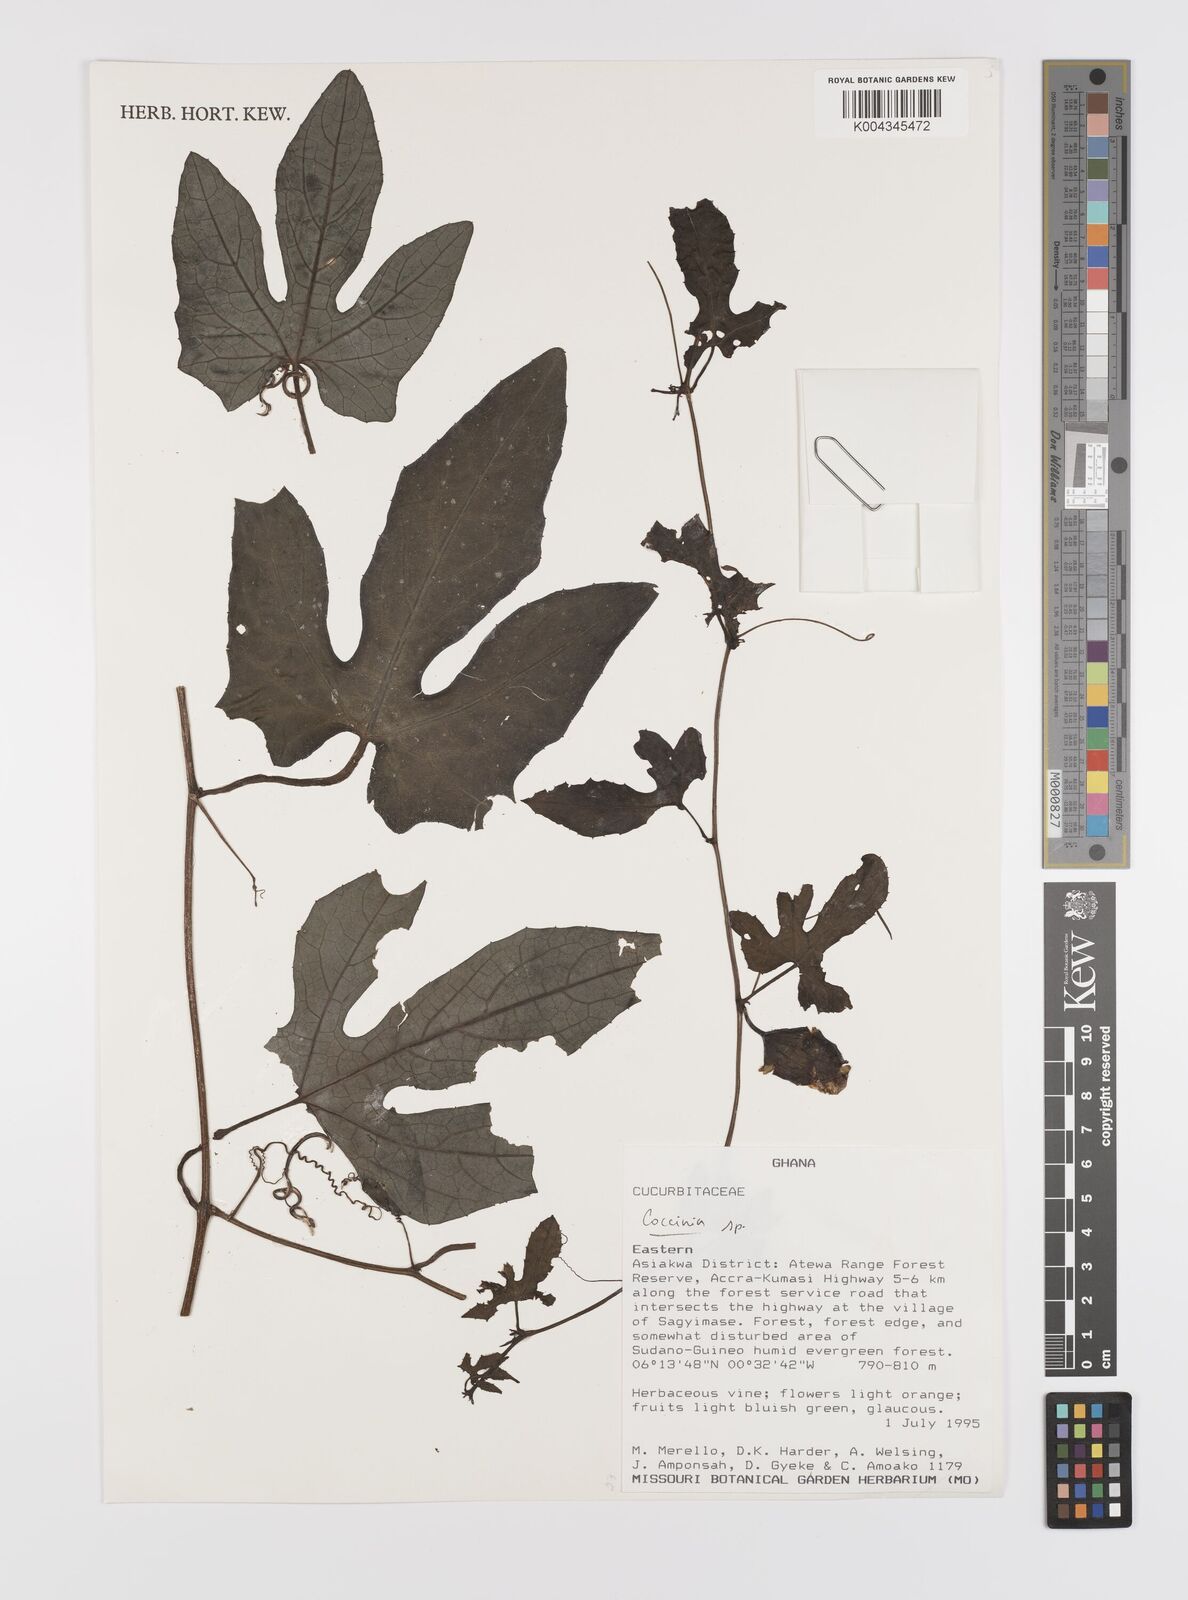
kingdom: Plantae
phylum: Tracheophyta
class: Magnoliopsida
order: Cucurbitales
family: Cucurbitaceae
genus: Coccinia
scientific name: Coccinia
